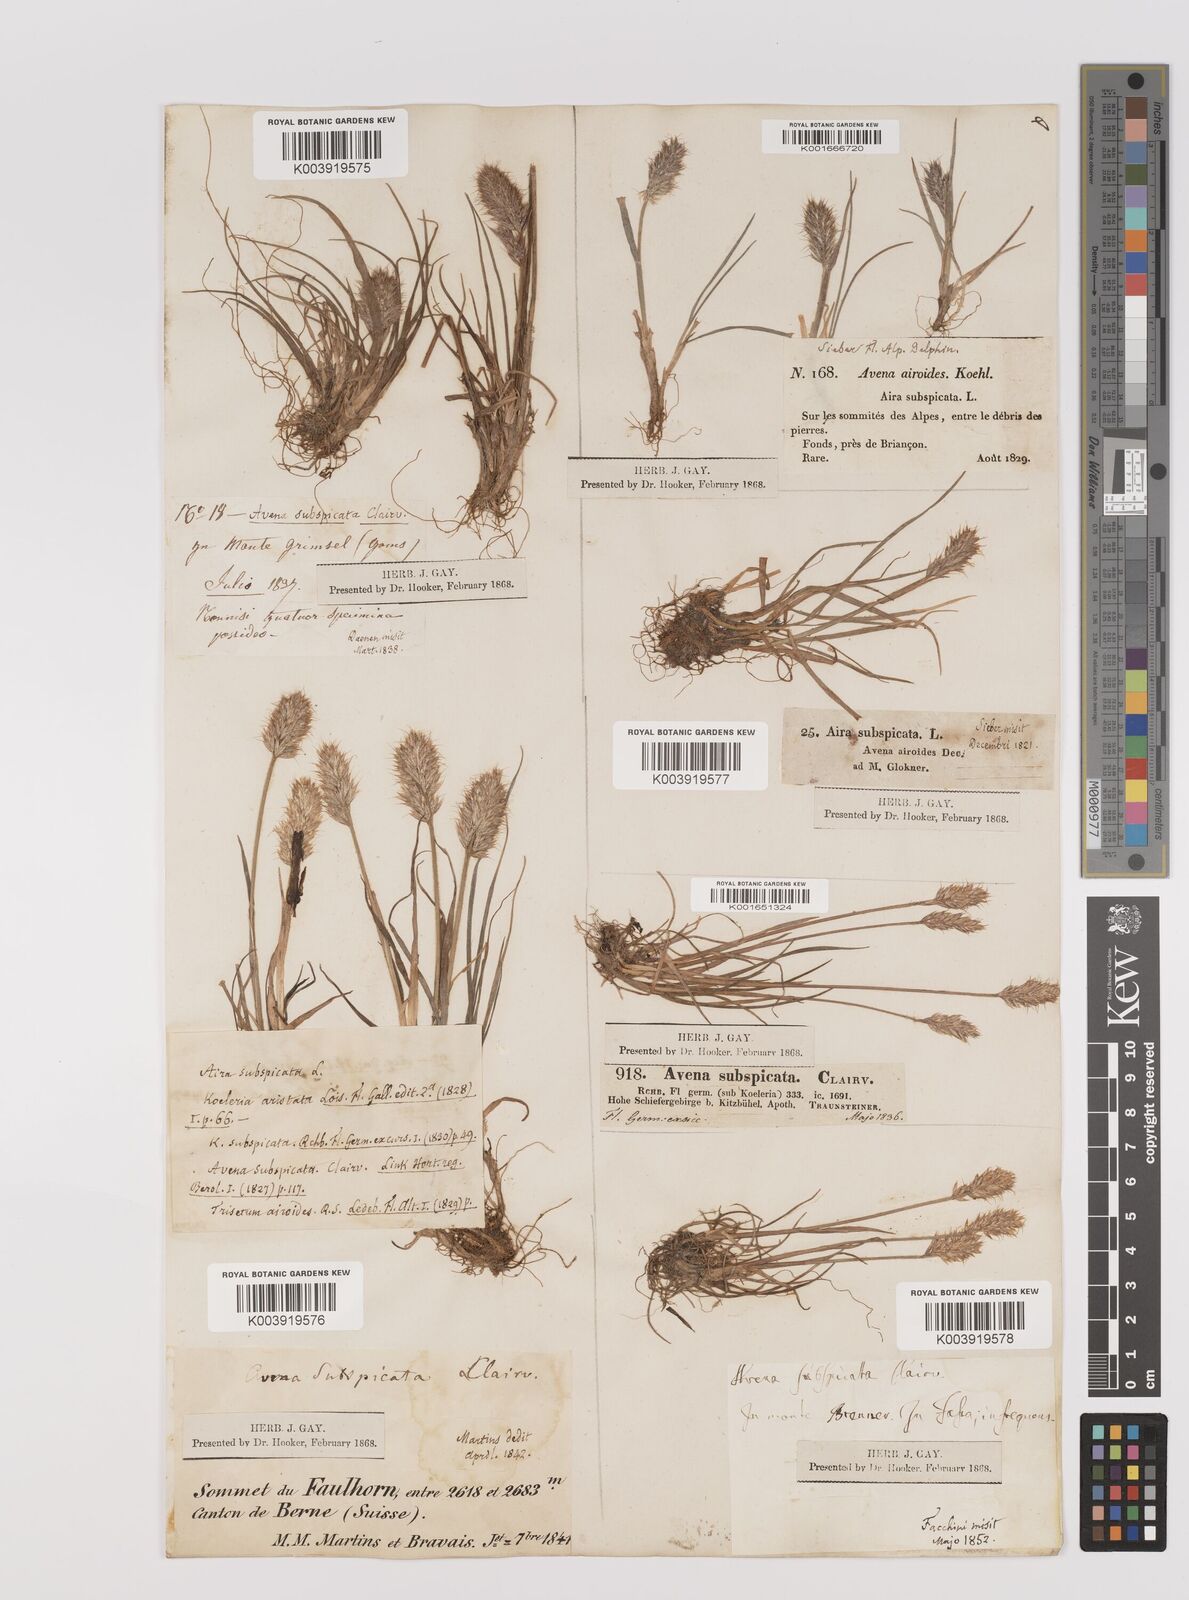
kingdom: Plantae
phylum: Tracheophyta
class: Liliopsida
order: Poales
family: Poaceae
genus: Koeleria
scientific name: Koeleria spicata
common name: Mountain trisetum
